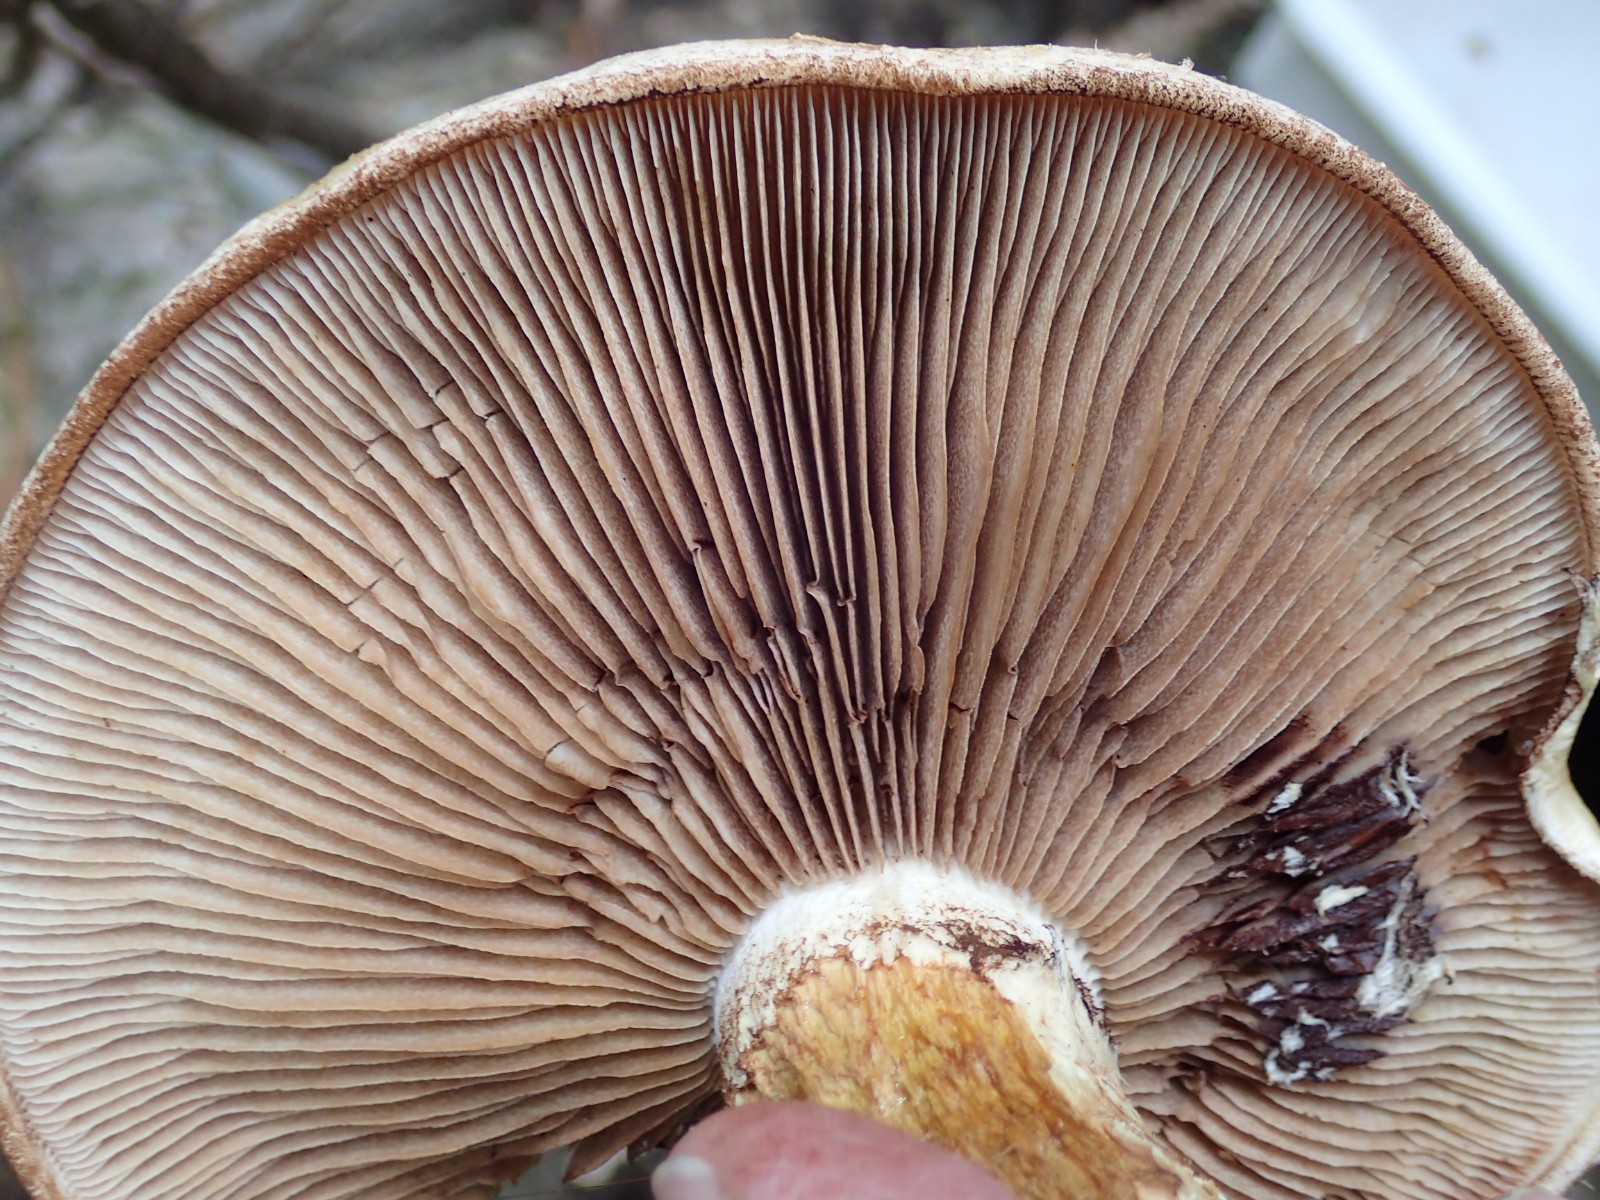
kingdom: Fungi
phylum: Basidiomycota
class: Agaricomycetes
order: Agaricales
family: Strophariaceae
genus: Pholiota
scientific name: Pholiota populnea
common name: poppel-kæmpeskælhat
